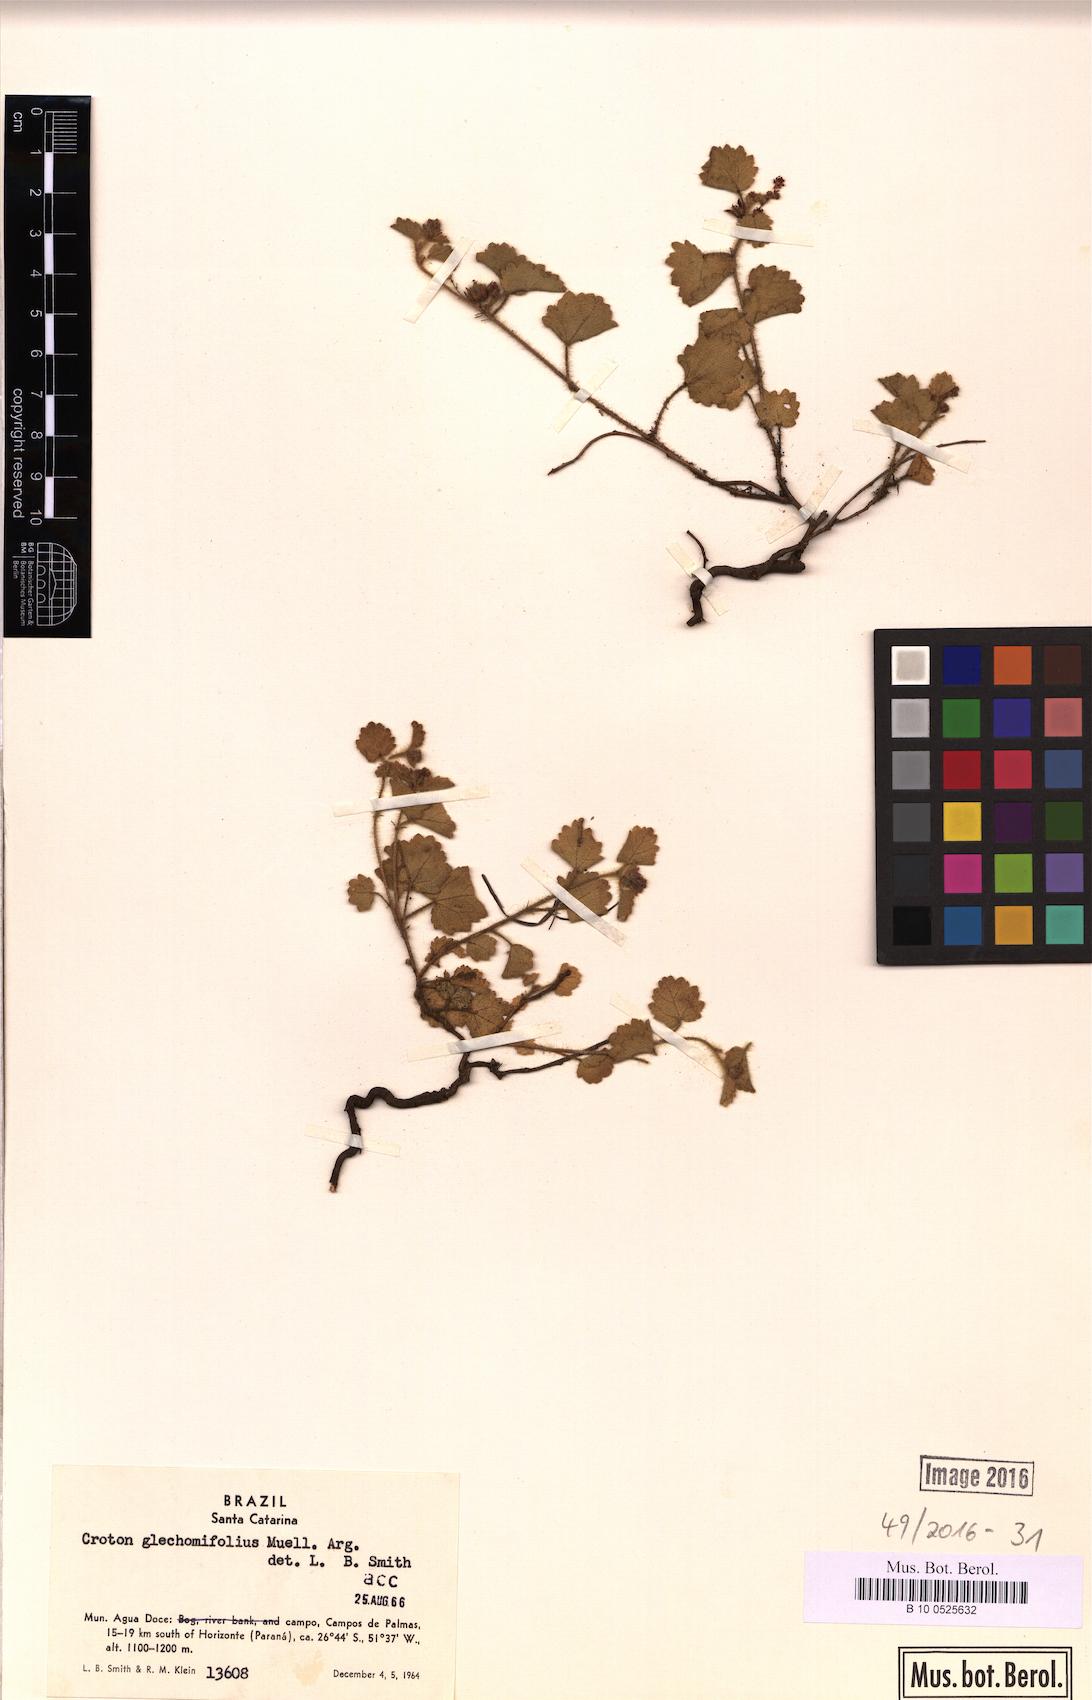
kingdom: Plantae
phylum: Tracheophyta
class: Magnoliopsida
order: Malpighiales
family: Euphorbiaceae
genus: Croton
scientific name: Croton glechomifolius
